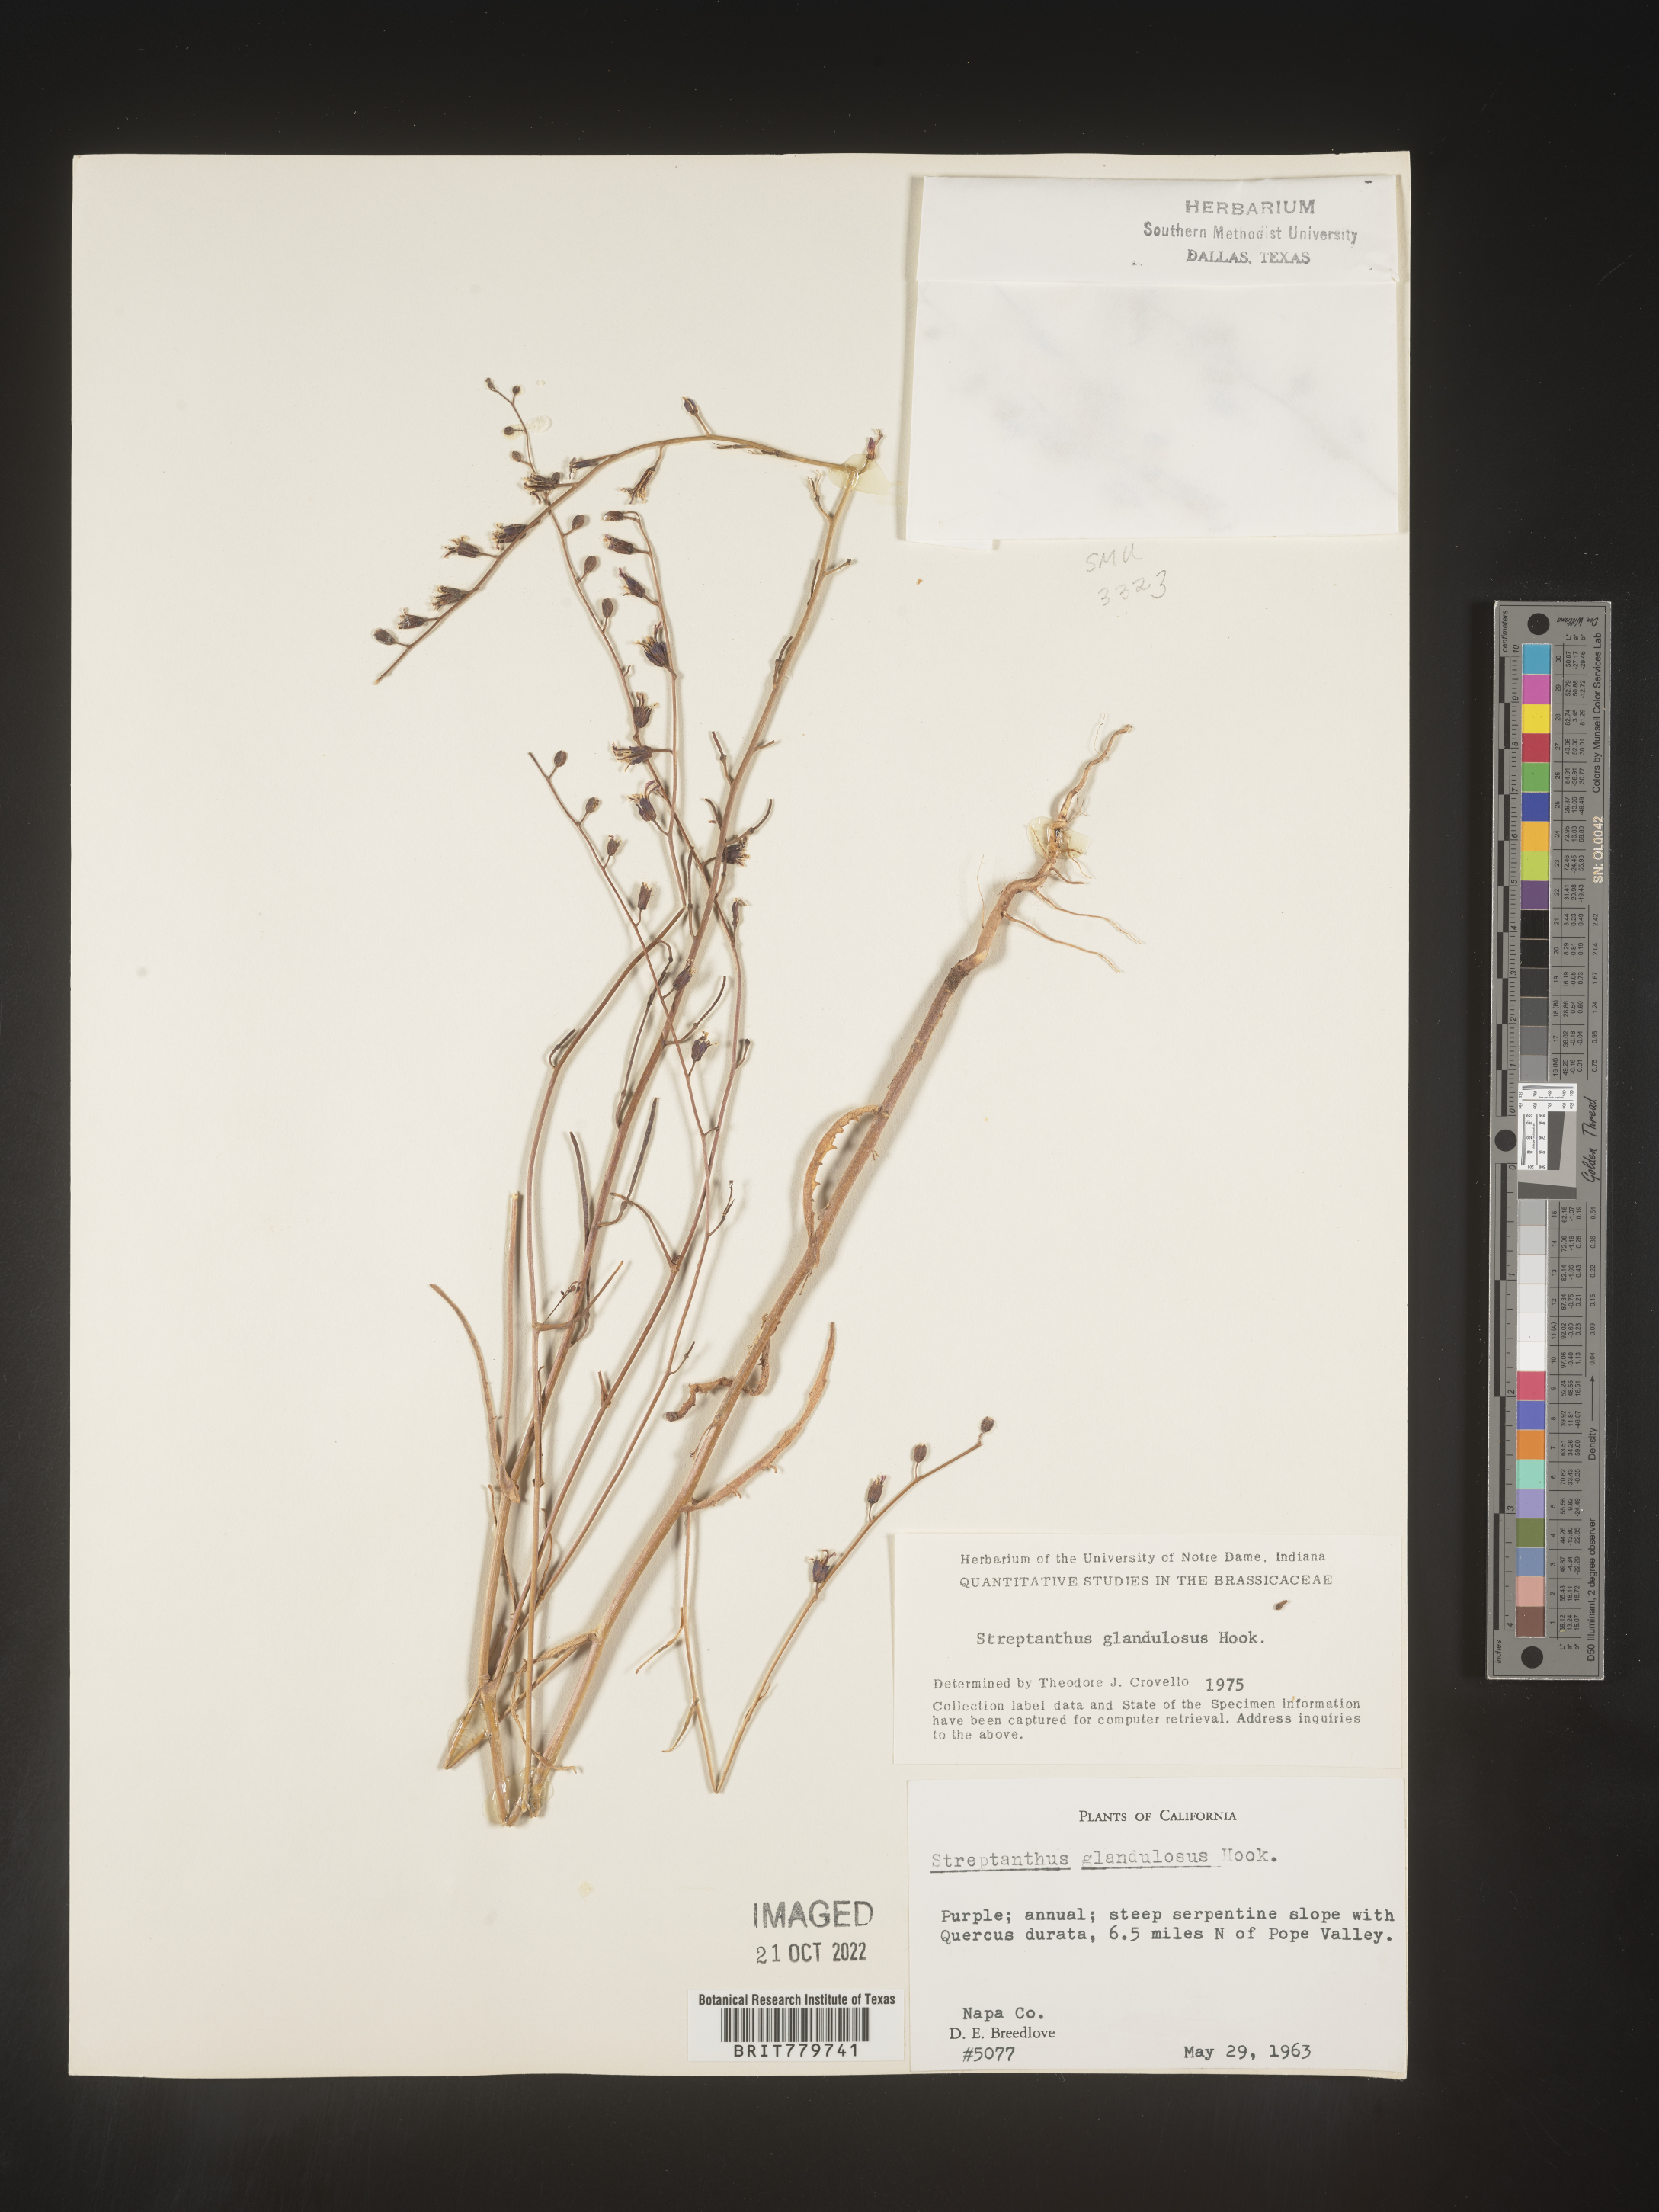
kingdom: Plantae
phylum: Tracheophyta
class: Magnoliopsida
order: Brassicales
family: Brassicaceae
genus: Streptanthus
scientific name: Streptanthus
